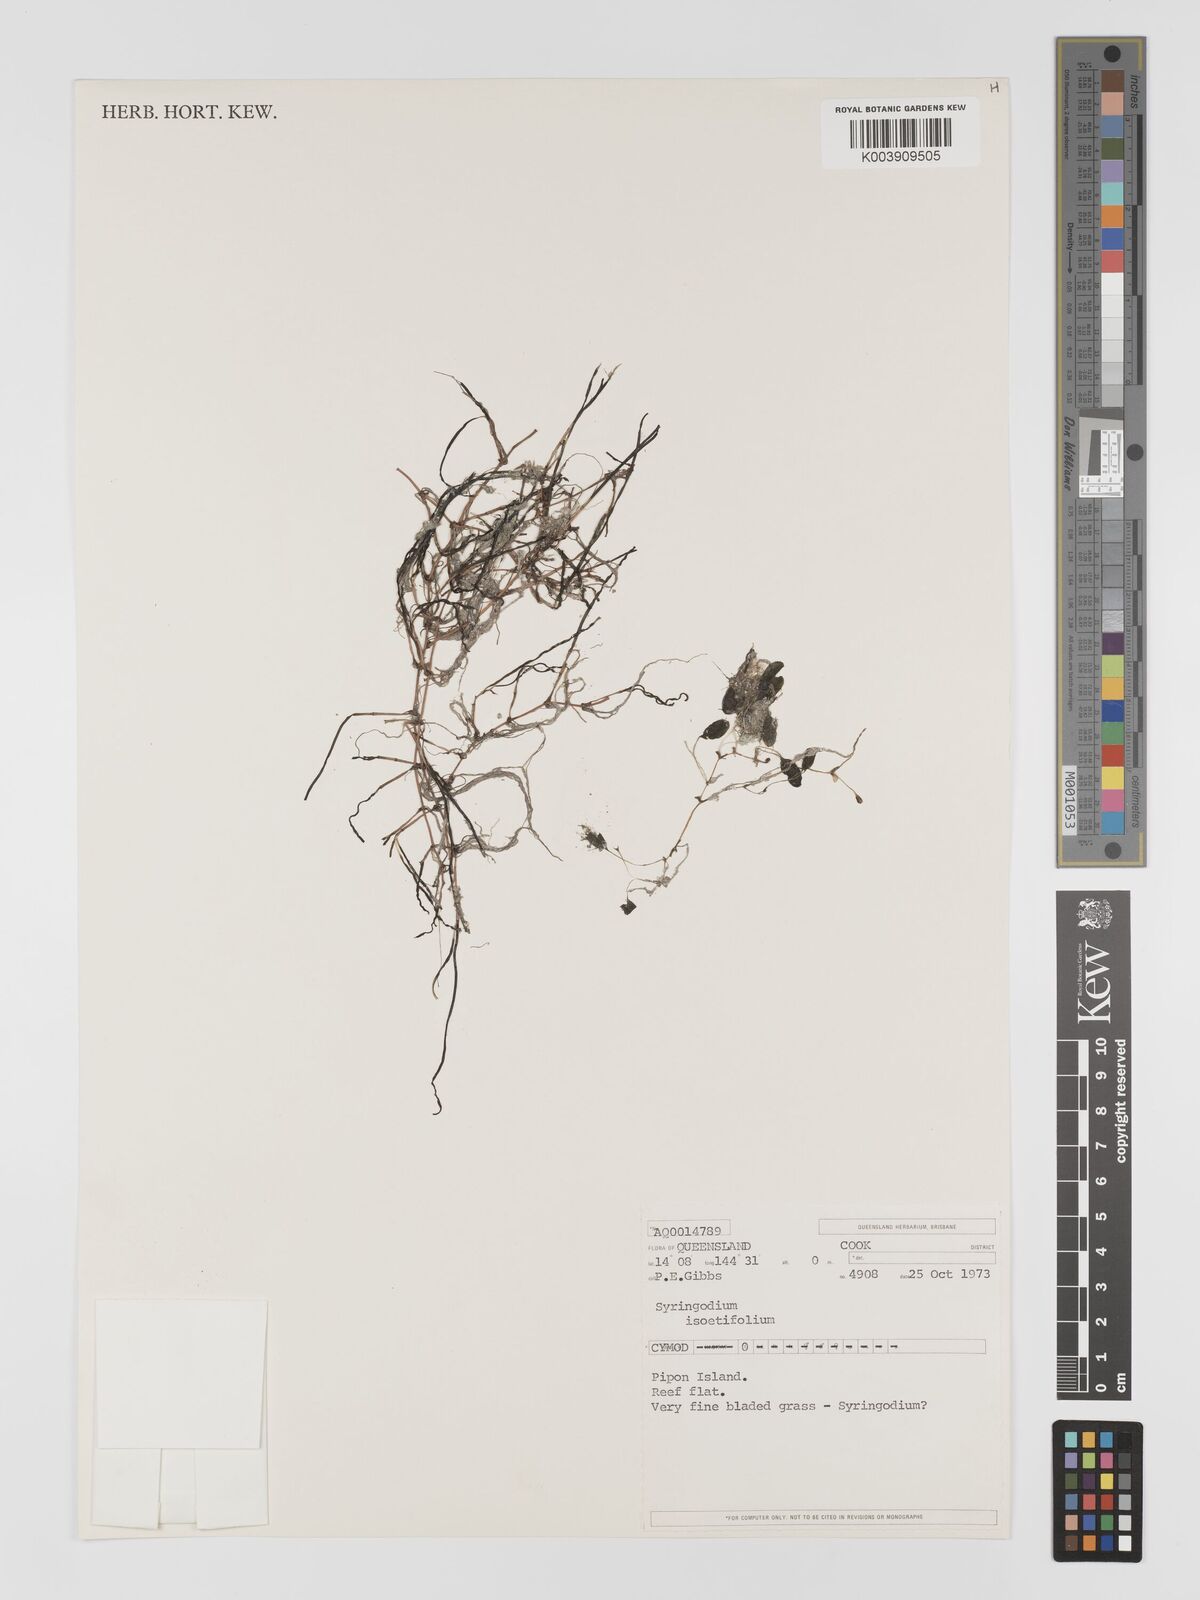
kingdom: Plantae
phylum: Tracheophyta
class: Liliopsida
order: Alismatales
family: Cymodoceaceae
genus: Syringodium
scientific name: Syringodium isoetifolium
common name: Species code: si
